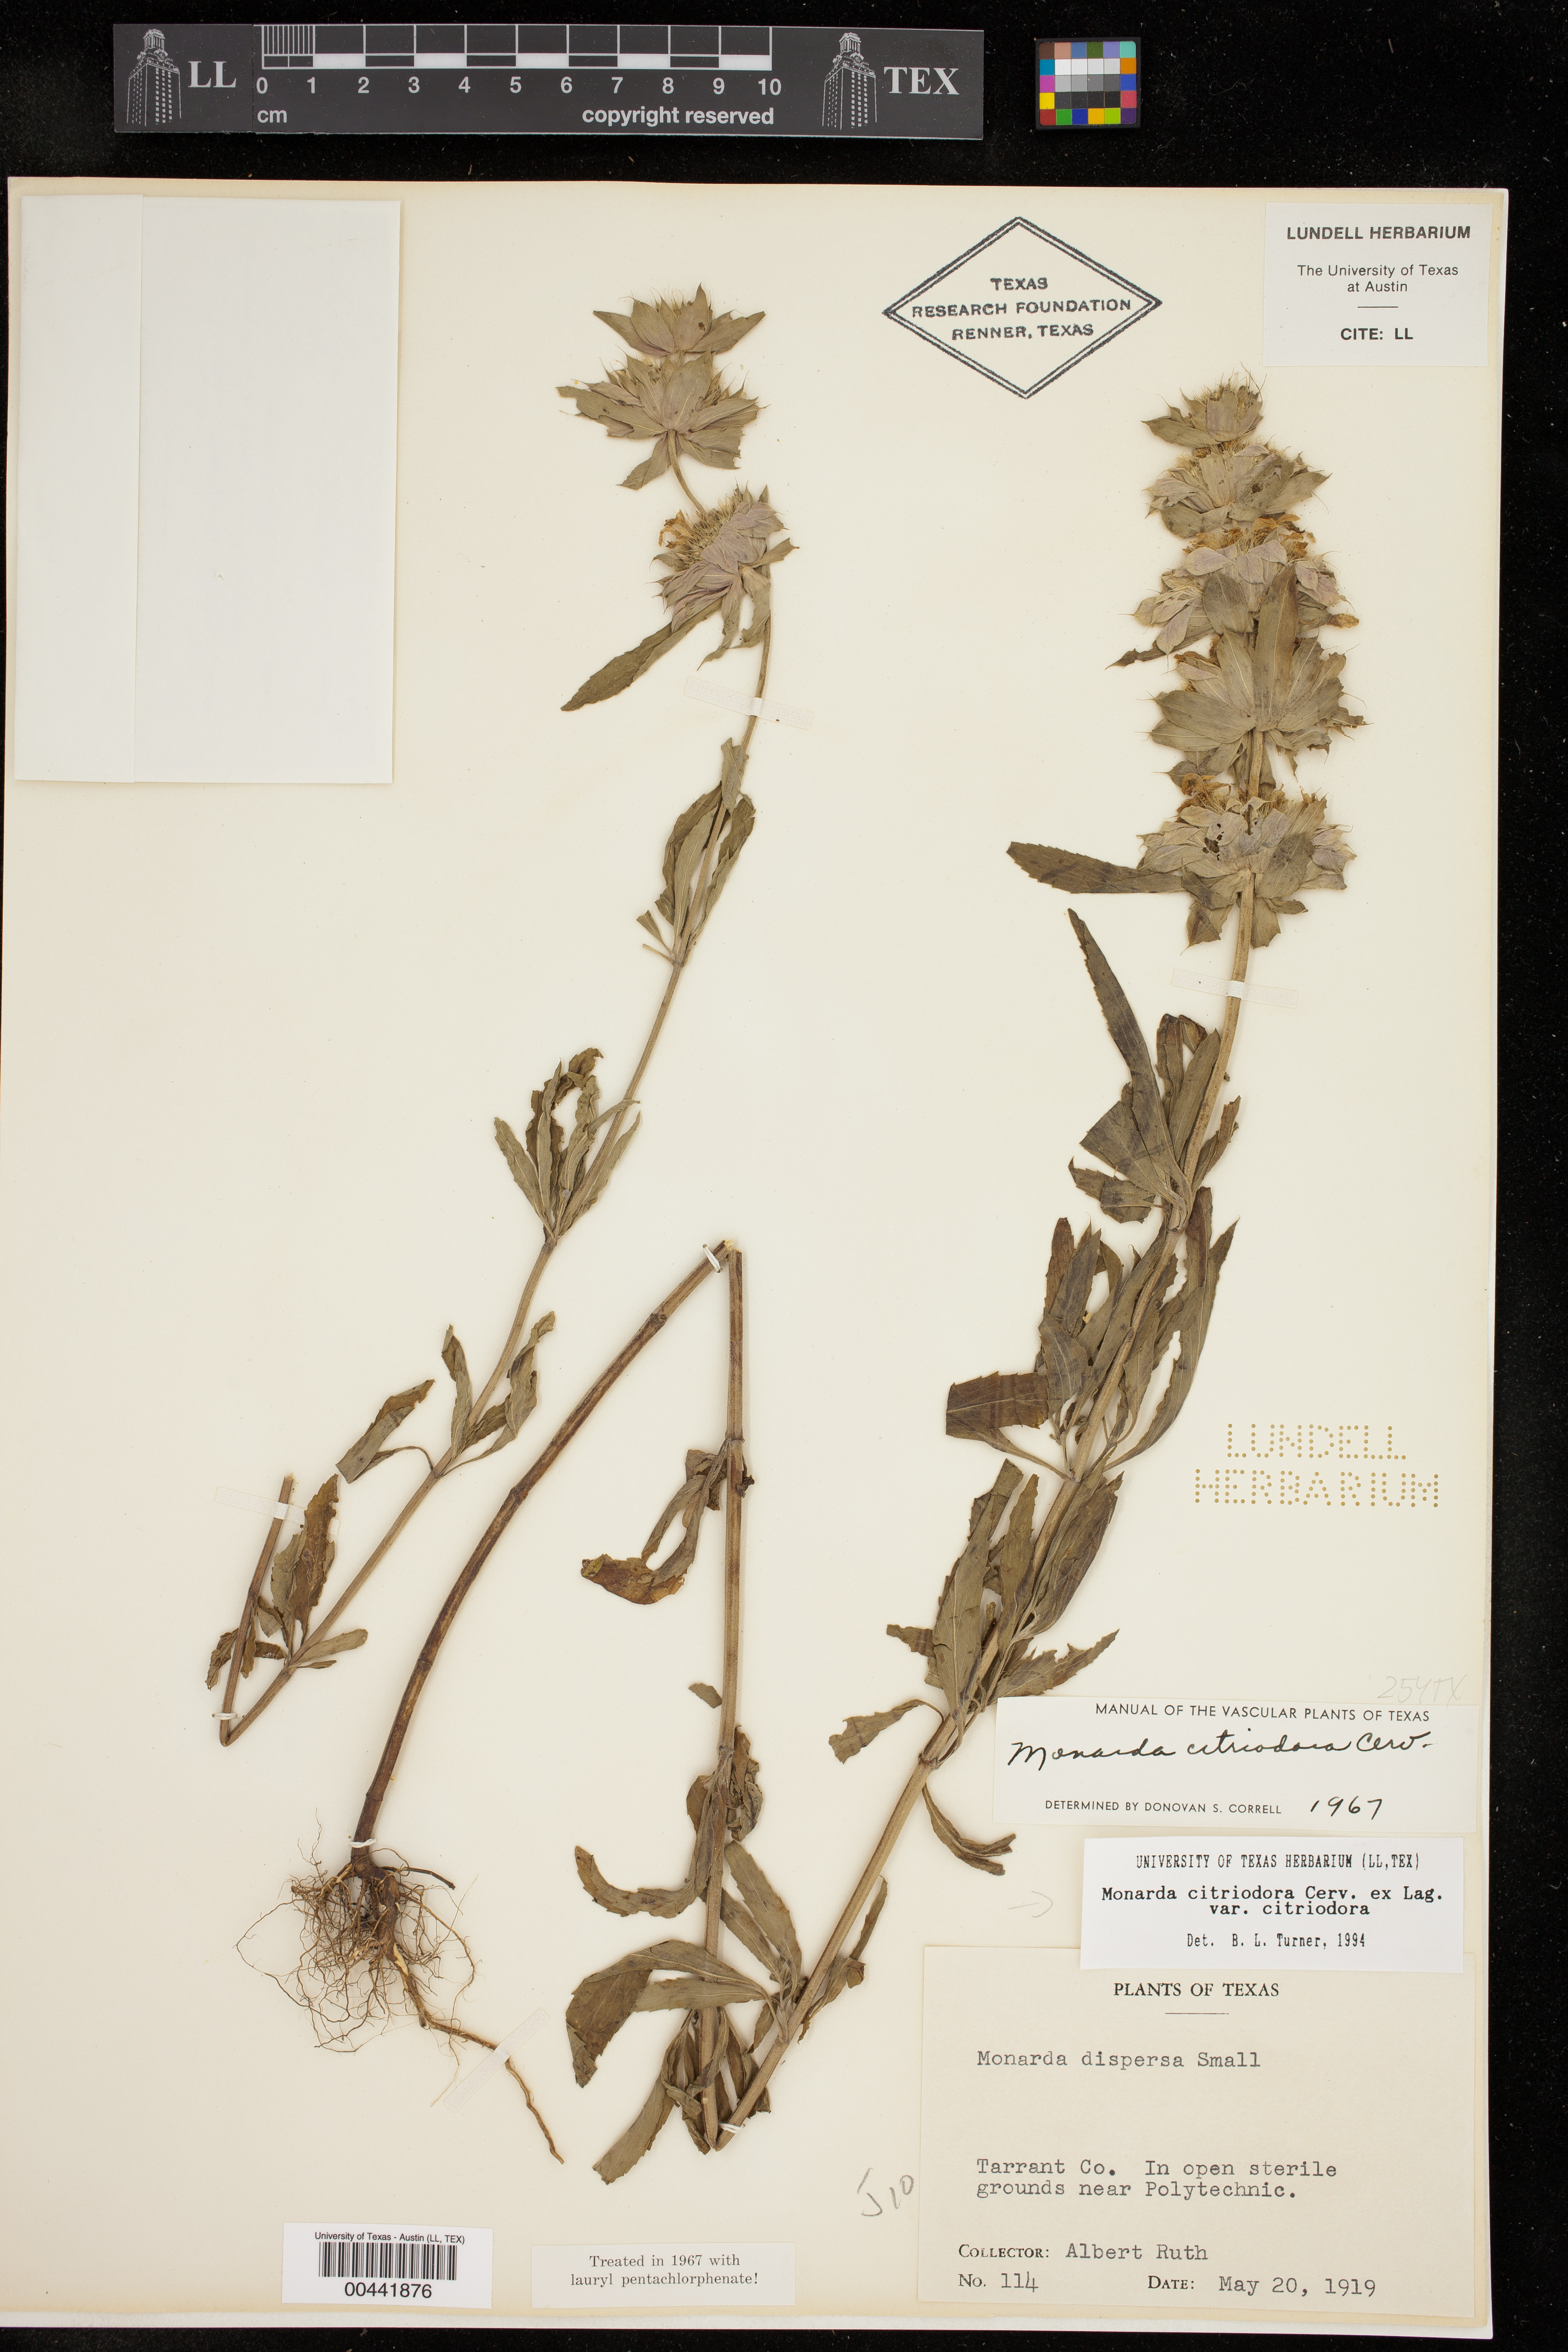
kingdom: Plantae
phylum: Tracheophyta
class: Magnoliopsida
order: Lamiales
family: Lamiaceae
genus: Monarda
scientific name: Monarda citriodora
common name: Lemon beebalm
